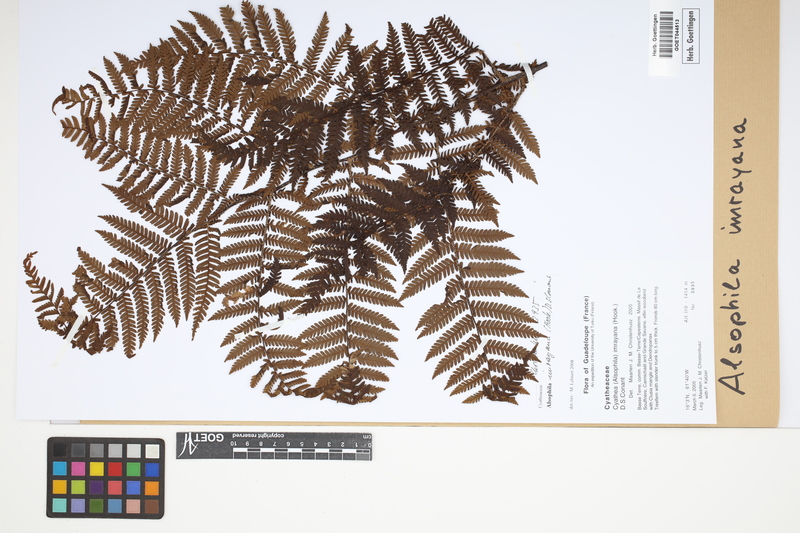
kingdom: Plantae
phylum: Tracheophyta
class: Polypodiopsida
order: Cyatheales
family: Cyatheaceae
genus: Alsophila
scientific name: Alsophila imrayana
